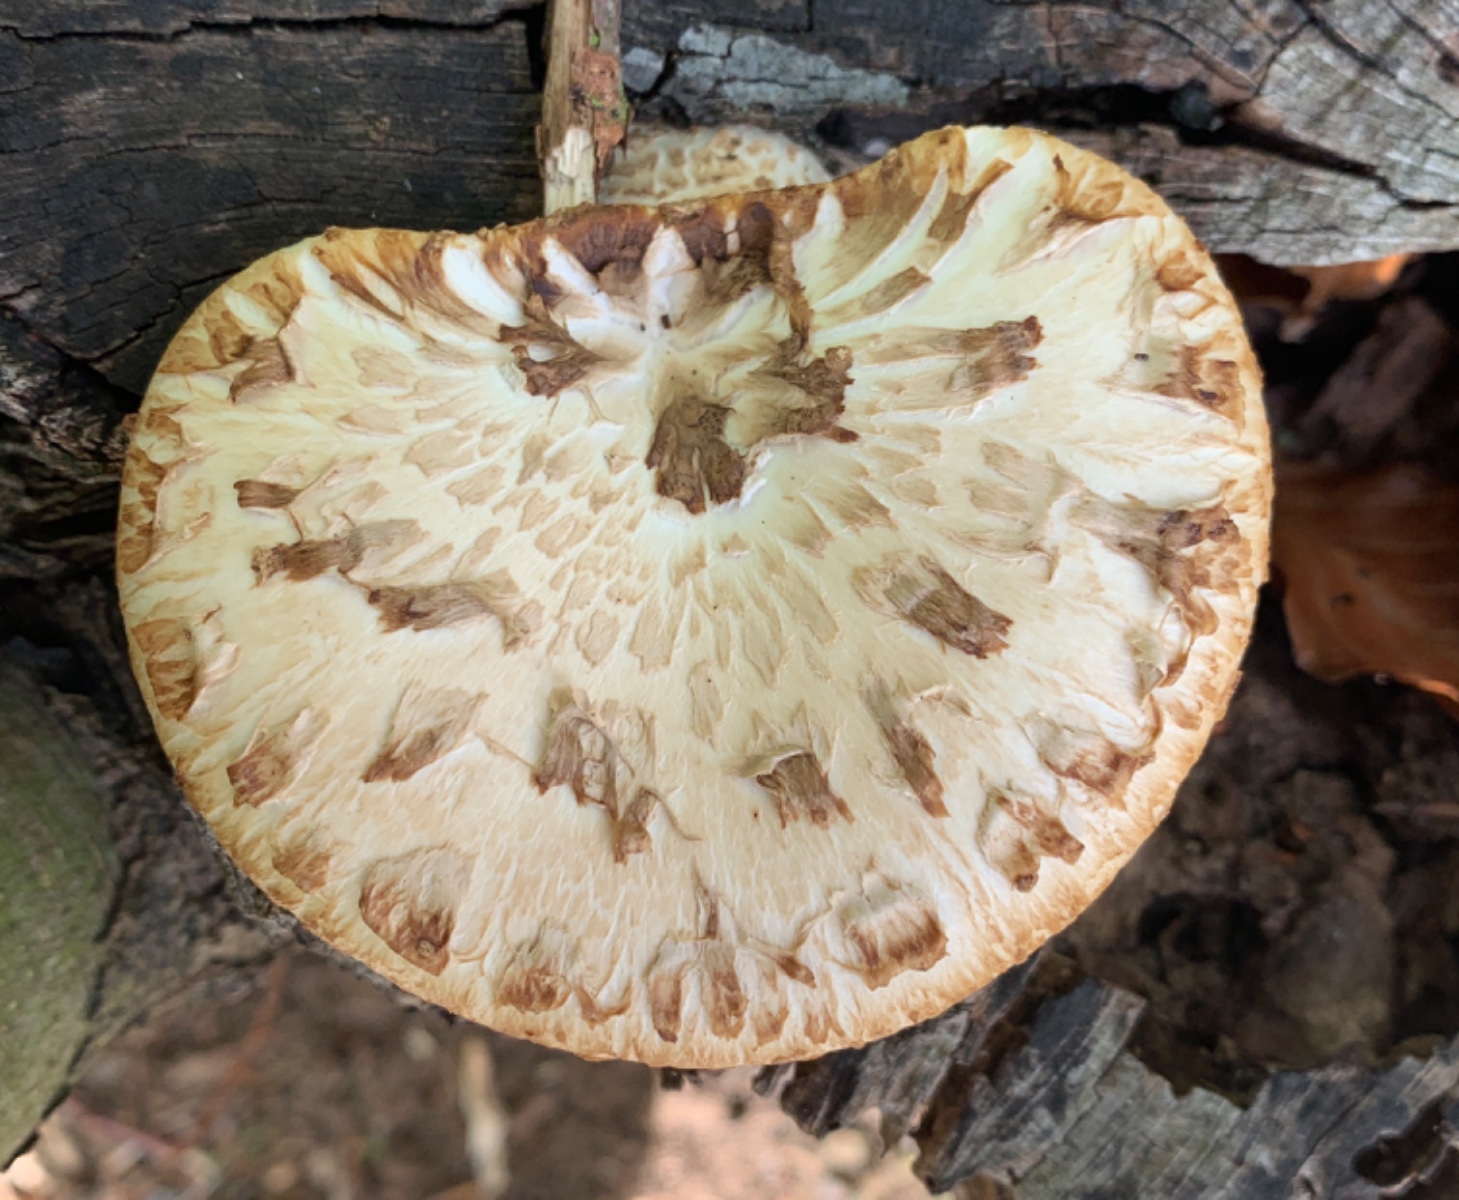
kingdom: Fungi
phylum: Basidiomycota
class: Agaricomycetes
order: Polyporales
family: Polyporaceae
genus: Cerioporus
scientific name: Cerioporus squamosus
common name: skællet stilkporesvamp
